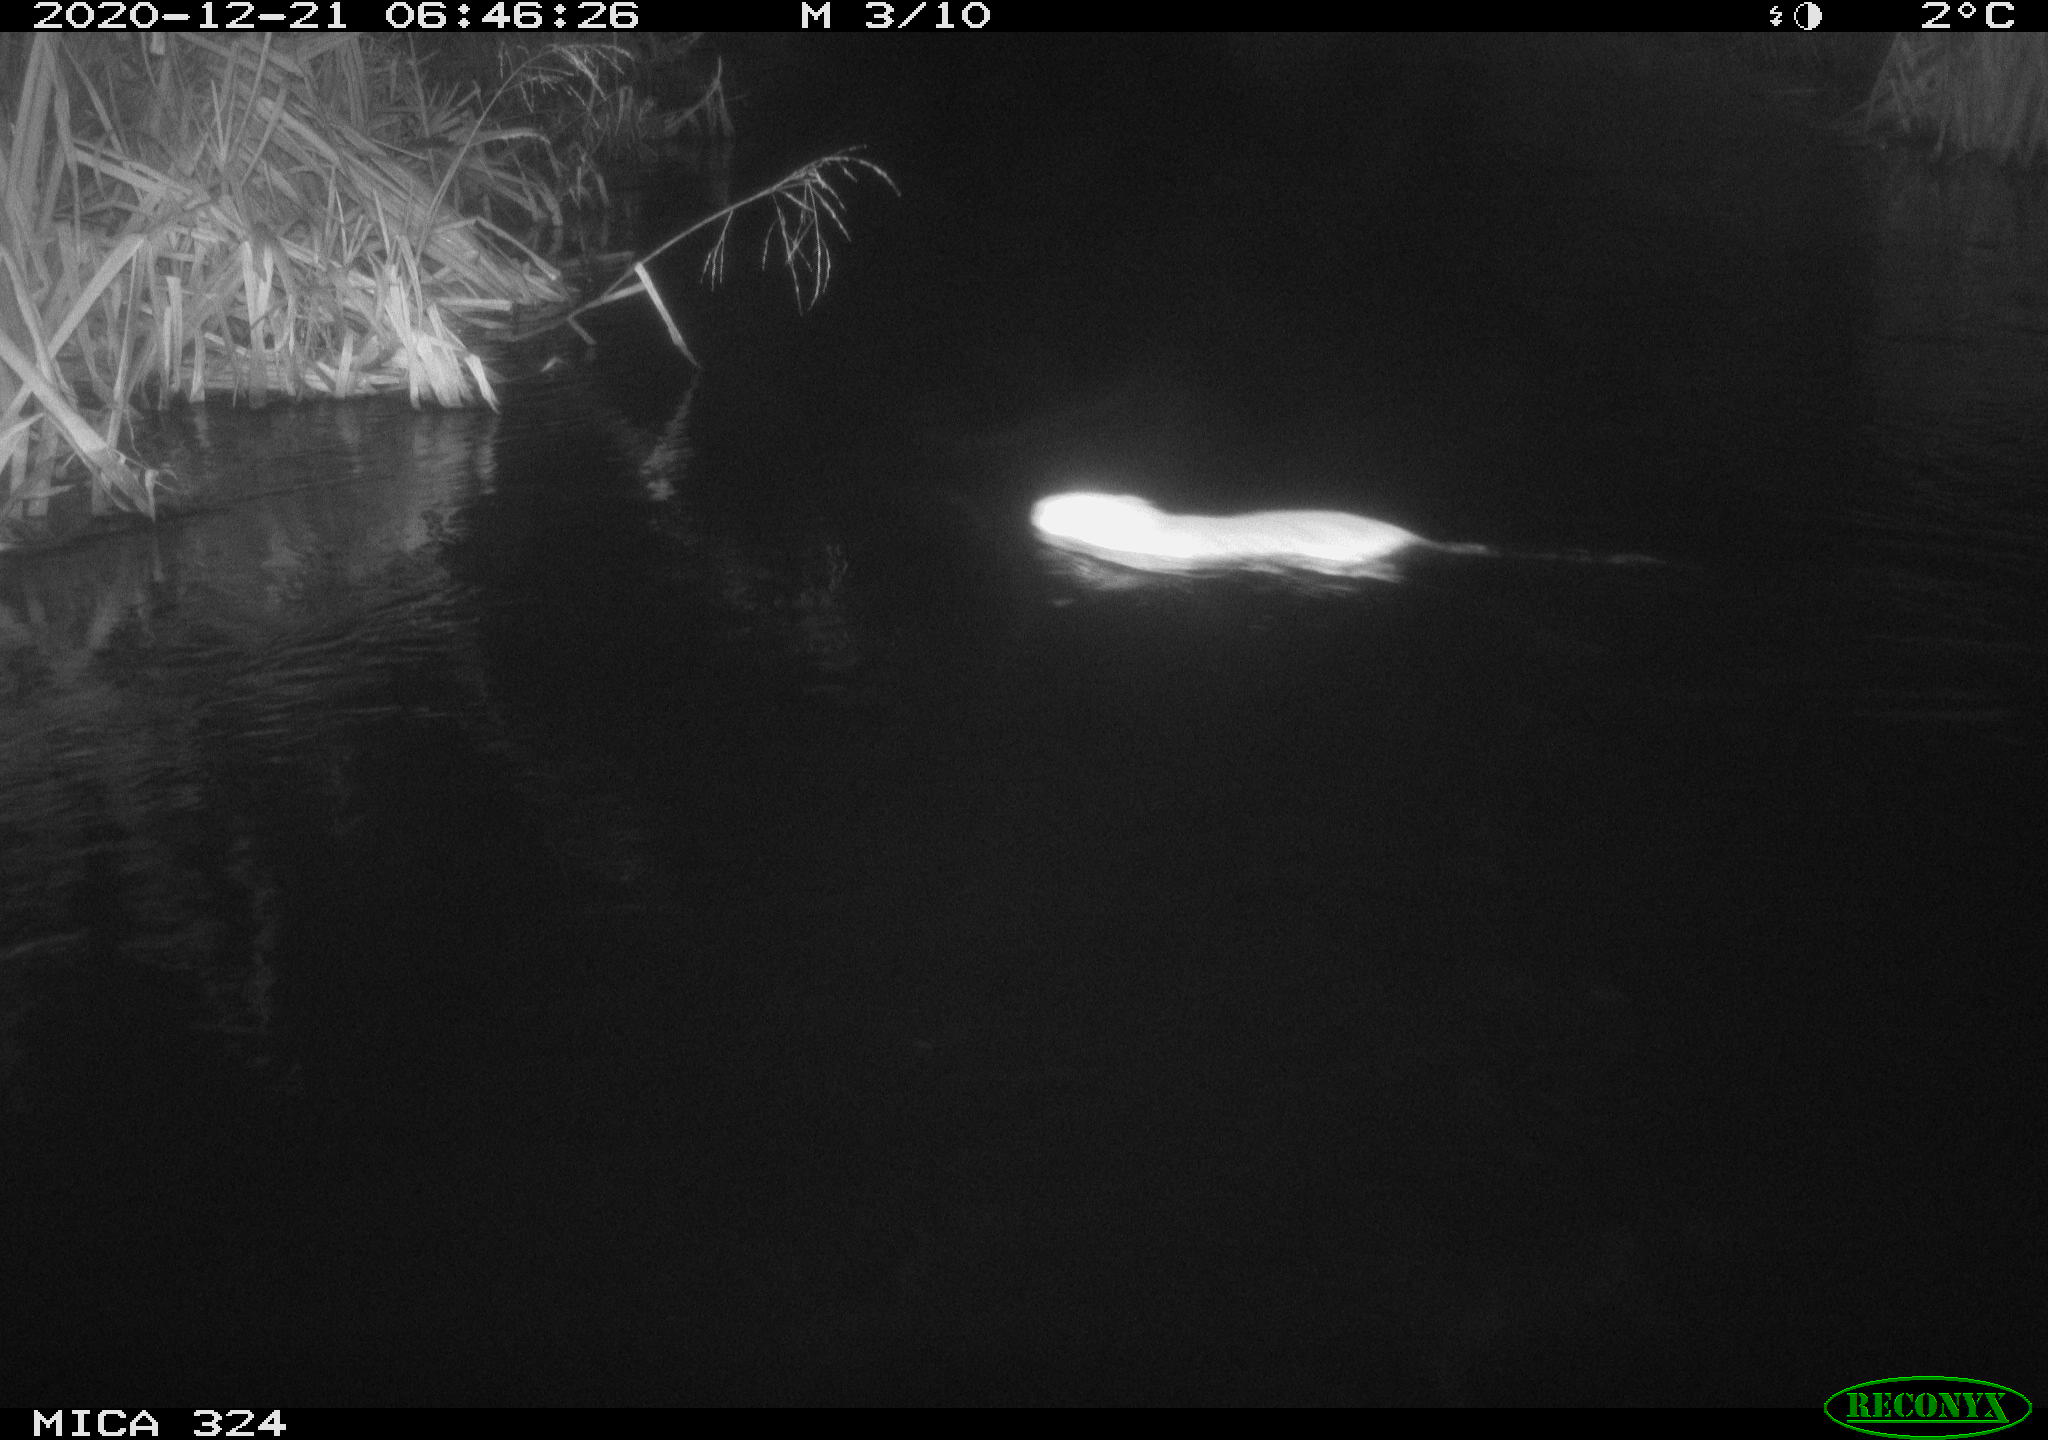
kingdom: Animalia
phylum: Chordata
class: Mammalia
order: Rodentia
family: Myocastoridae
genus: Myocastor
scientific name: Myocastor coypus
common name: Coypu
